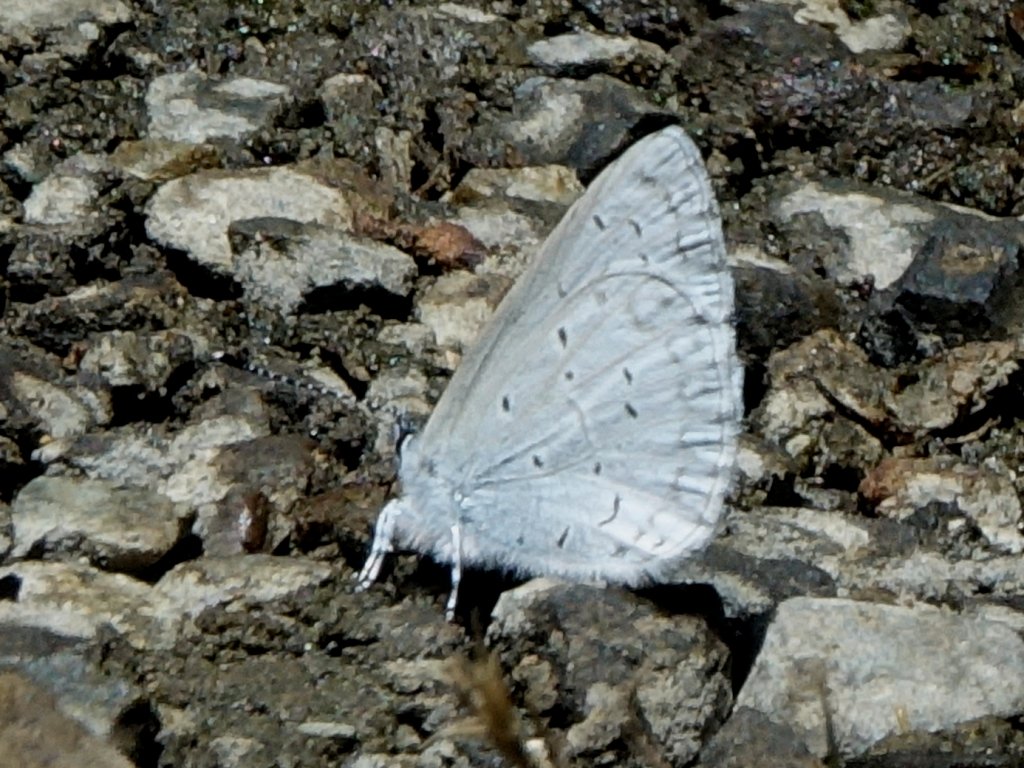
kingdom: Animalia
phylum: Arthropoda
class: Insecta
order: Lepidoptera
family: Lycaenidae
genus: Celastrina
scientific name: Celastrina ladon
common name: Spring Azure
